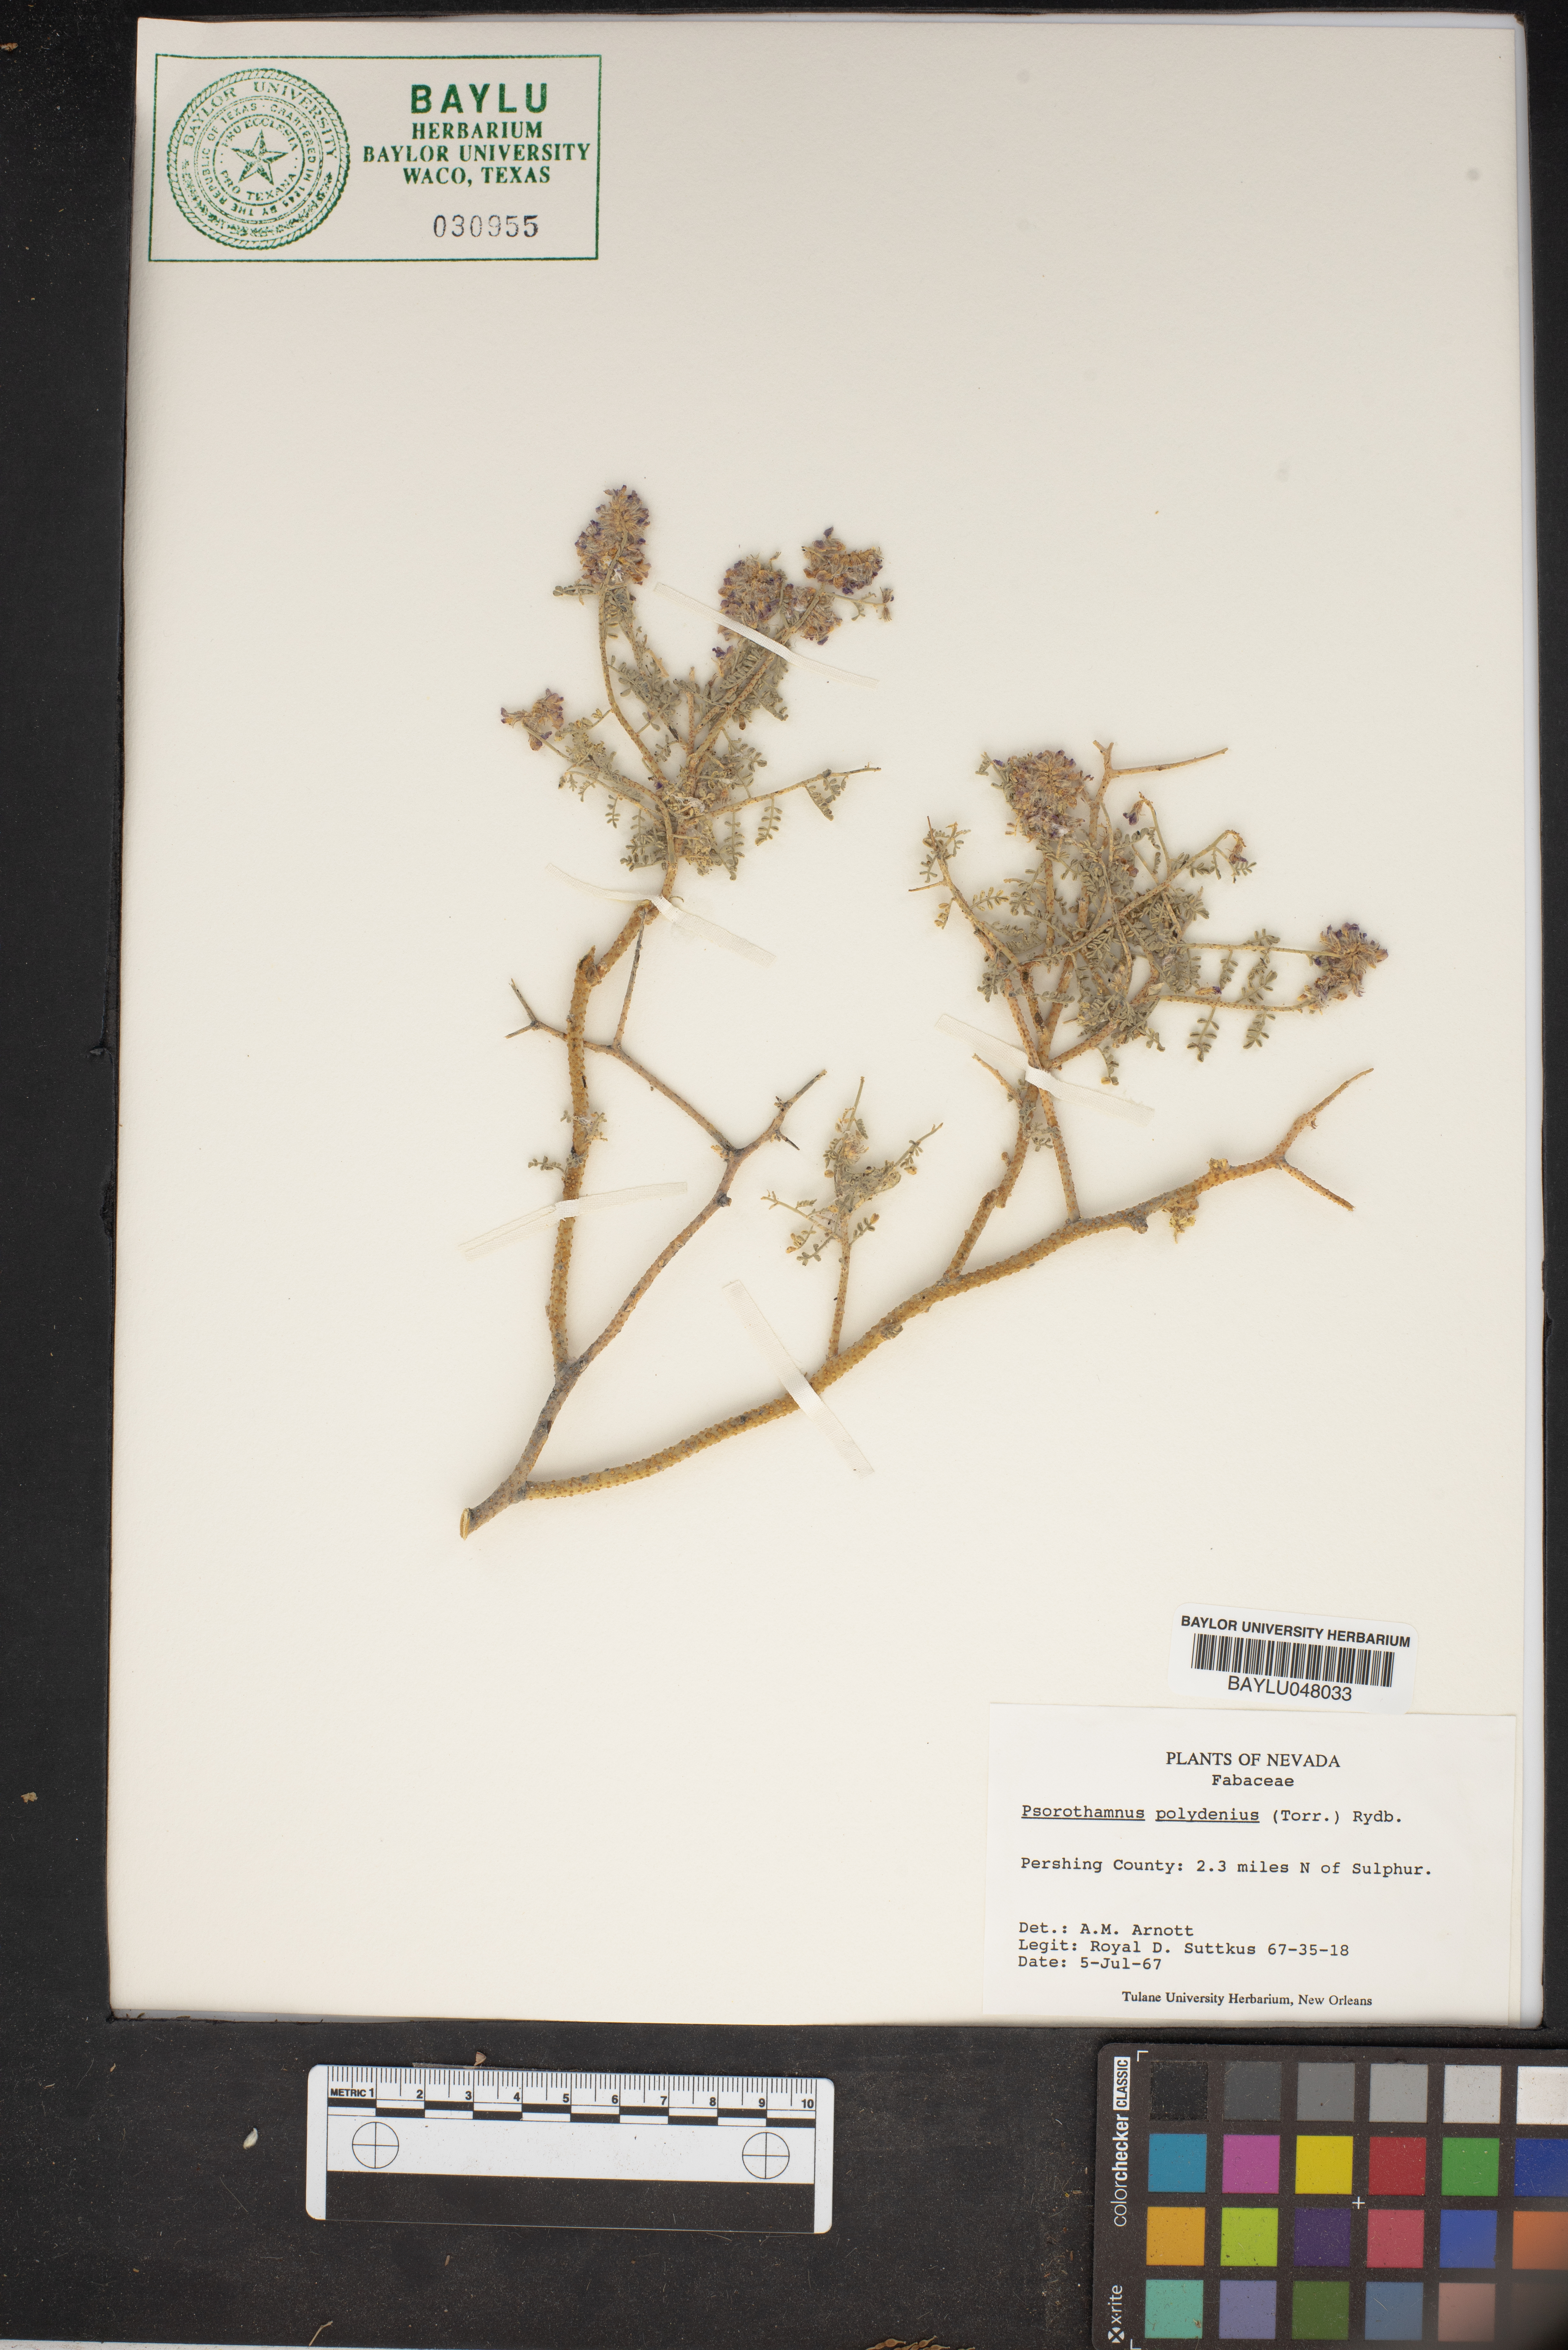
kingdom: Plantae
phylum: Tracheophyta
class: Magnoliopsida
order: Fabales
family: Fabaceae
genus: Psorothamnus
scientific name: Psorothamnus polydenius
